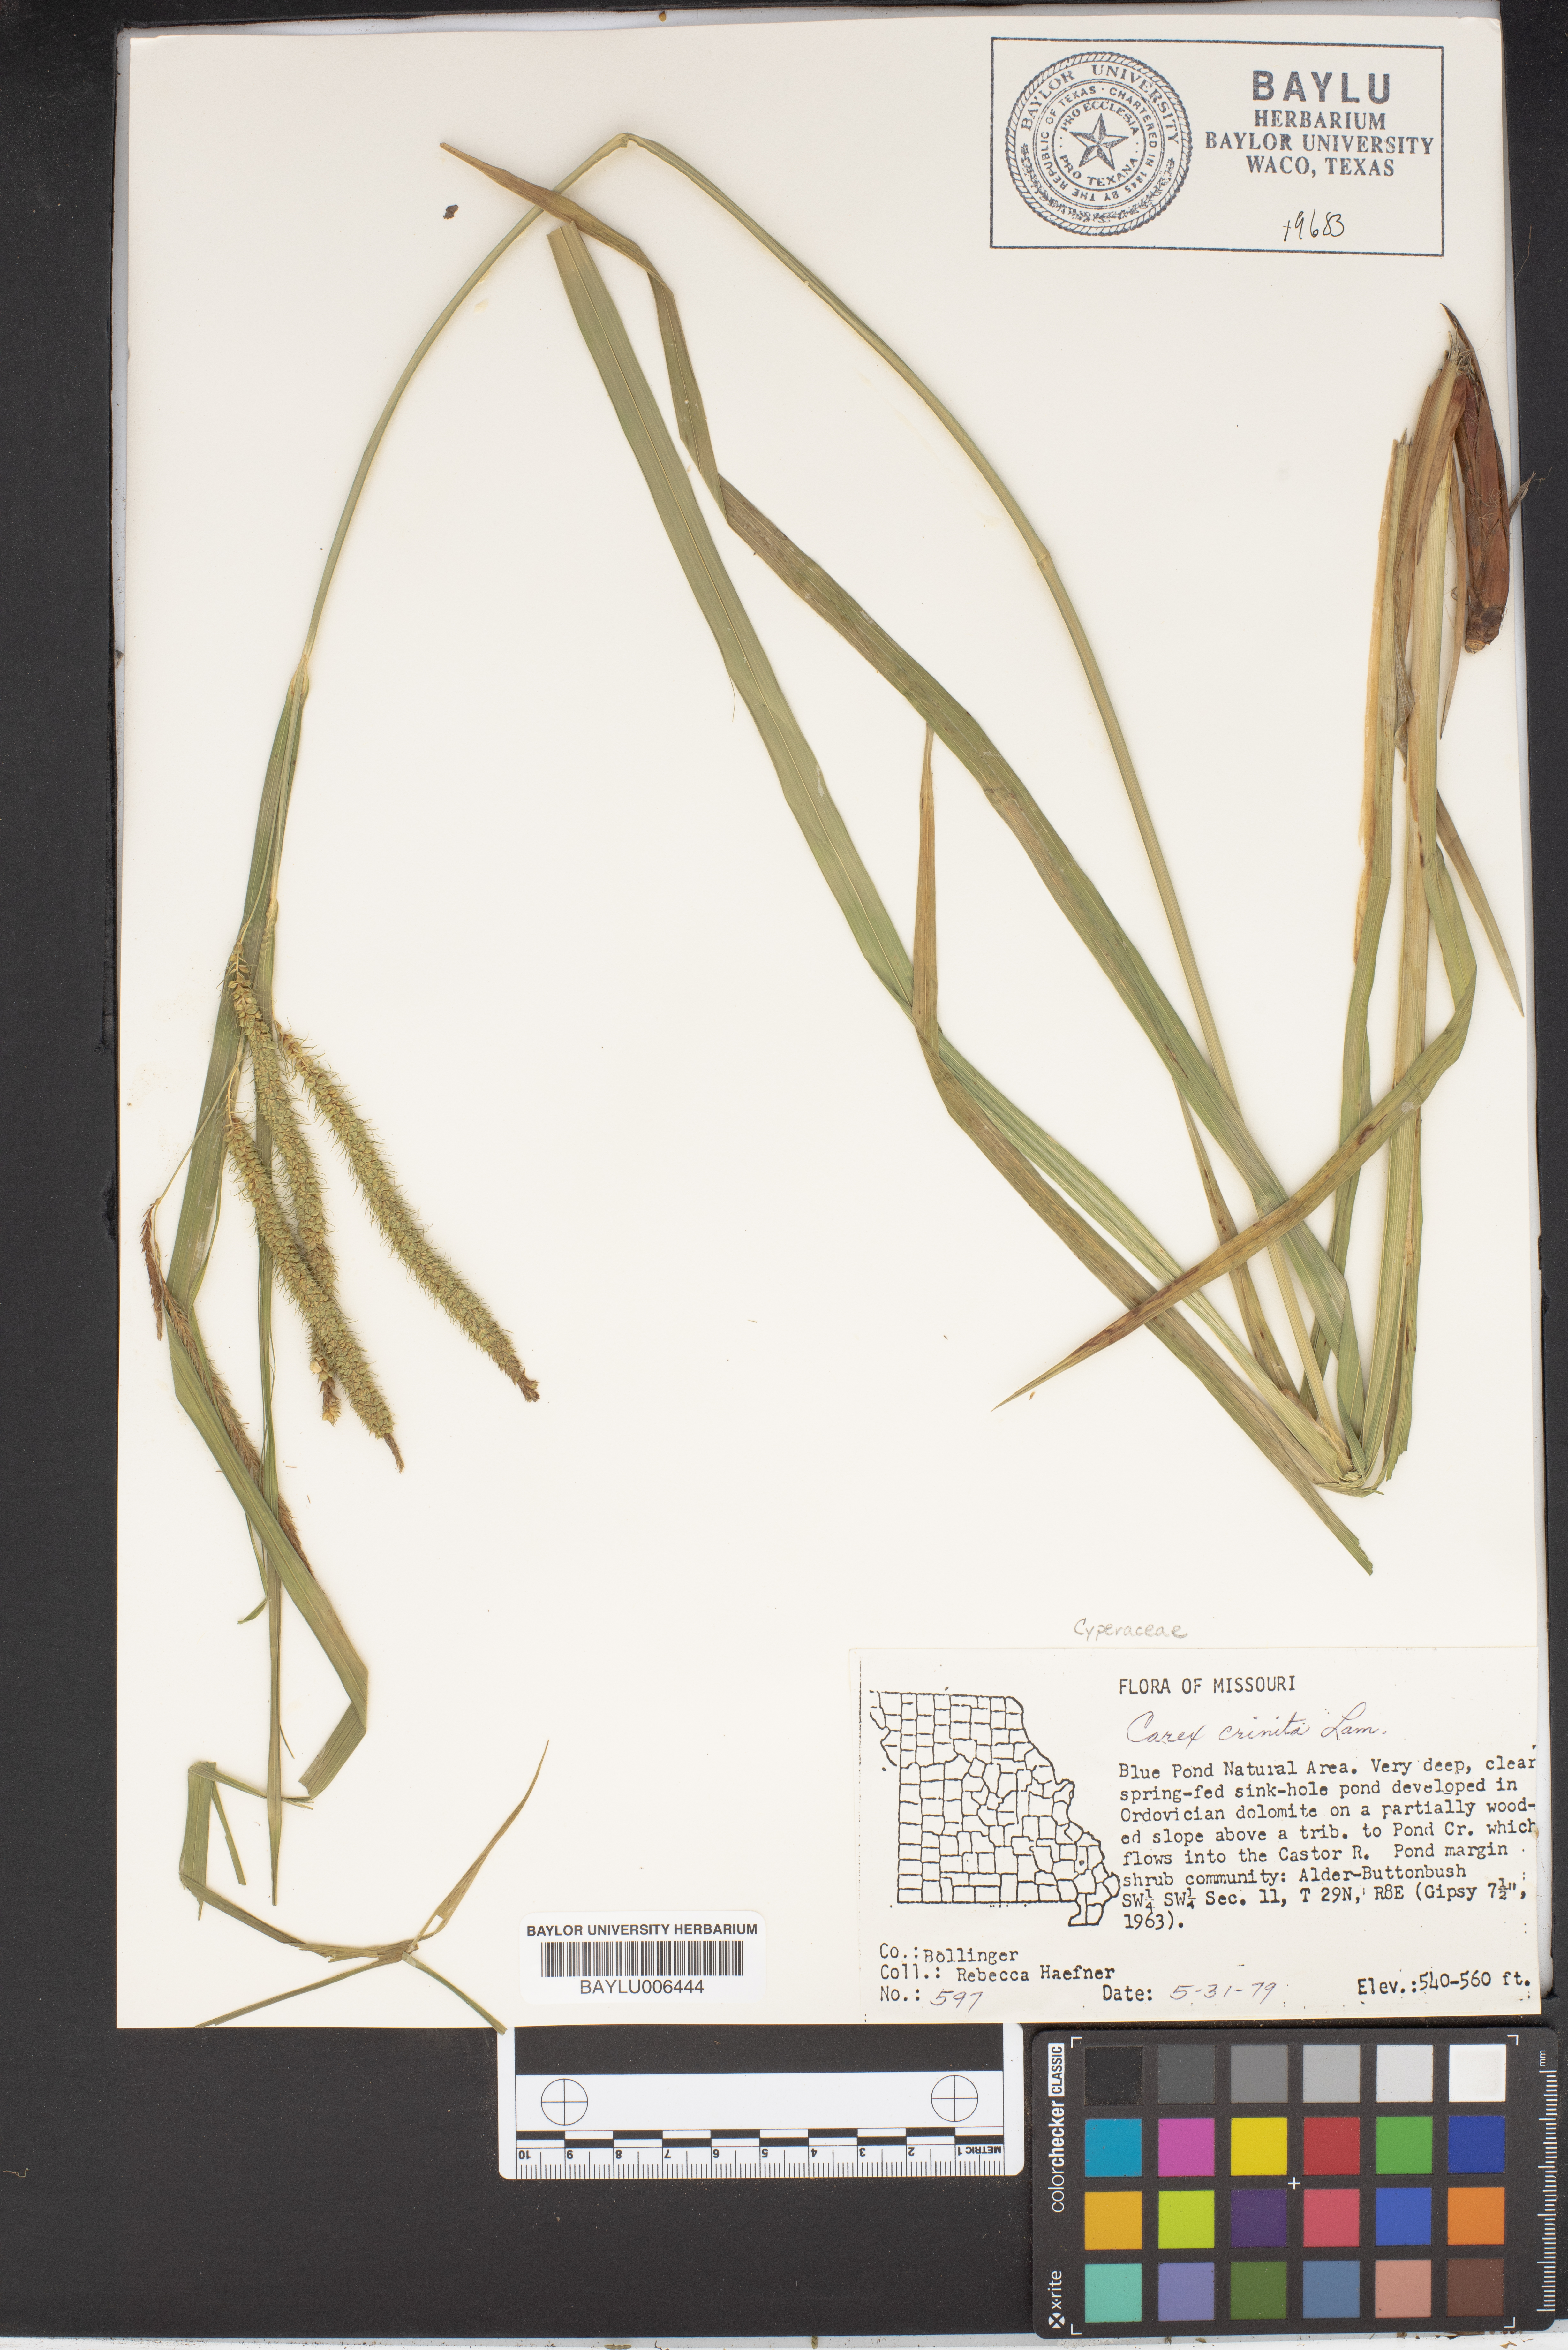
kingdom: Plantae
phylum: Tracheophyta
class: Liliopsida
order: Poales
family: Cyperaceae
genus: Carex
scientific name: Carex crinita
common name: Fringed sedge
